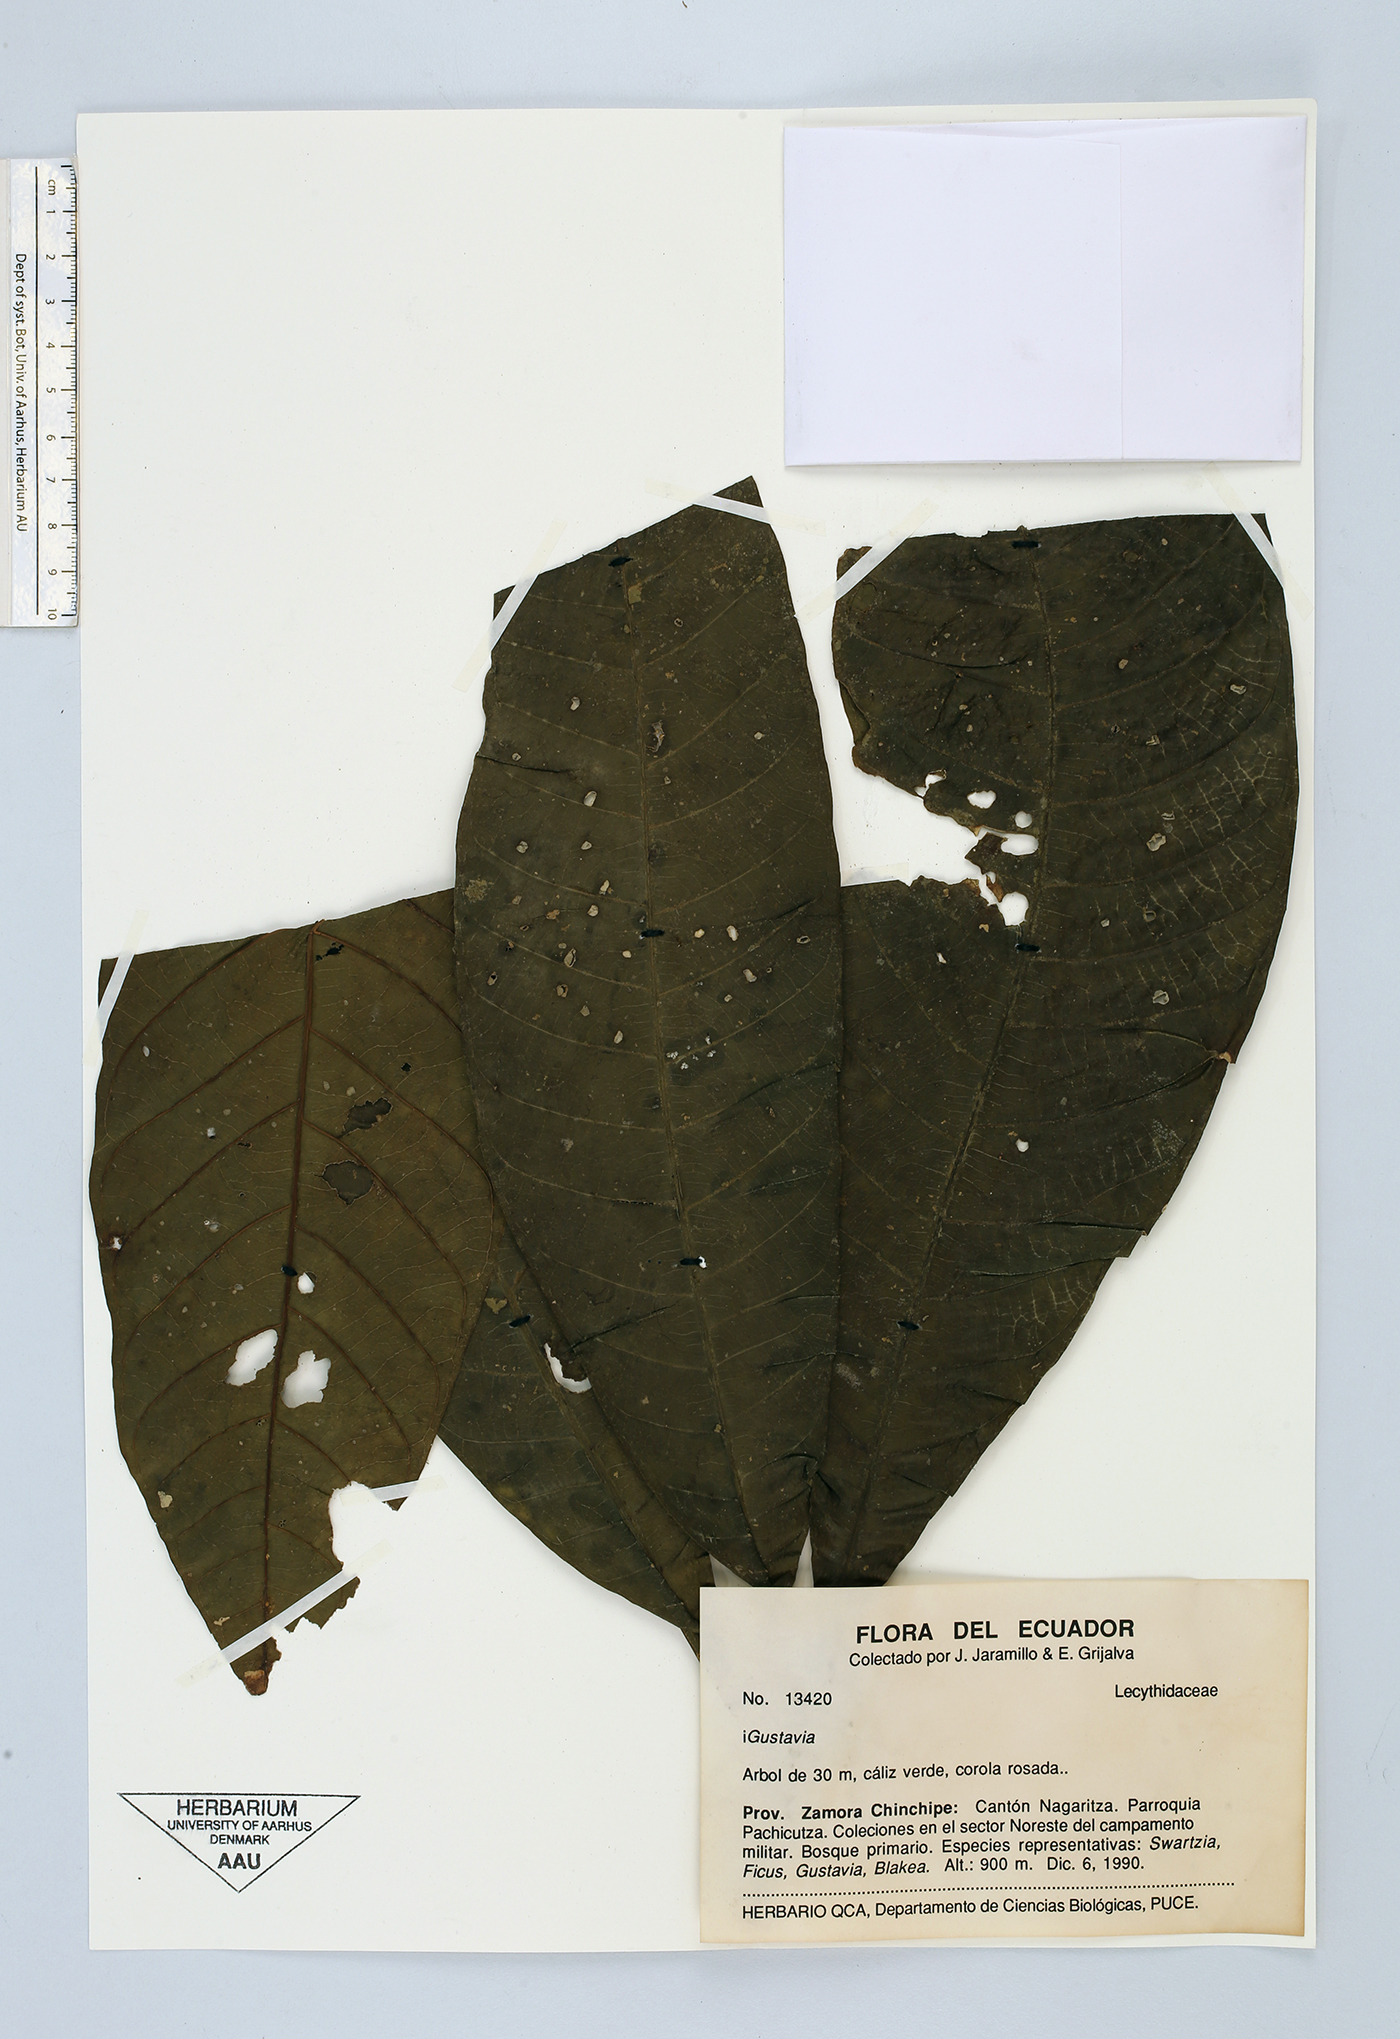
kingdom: Plantae
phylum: Tracheophyta
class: Magnoliopsida
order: Ericales
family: Lecythidaceae
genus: Gustavia
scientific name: Gustavia
